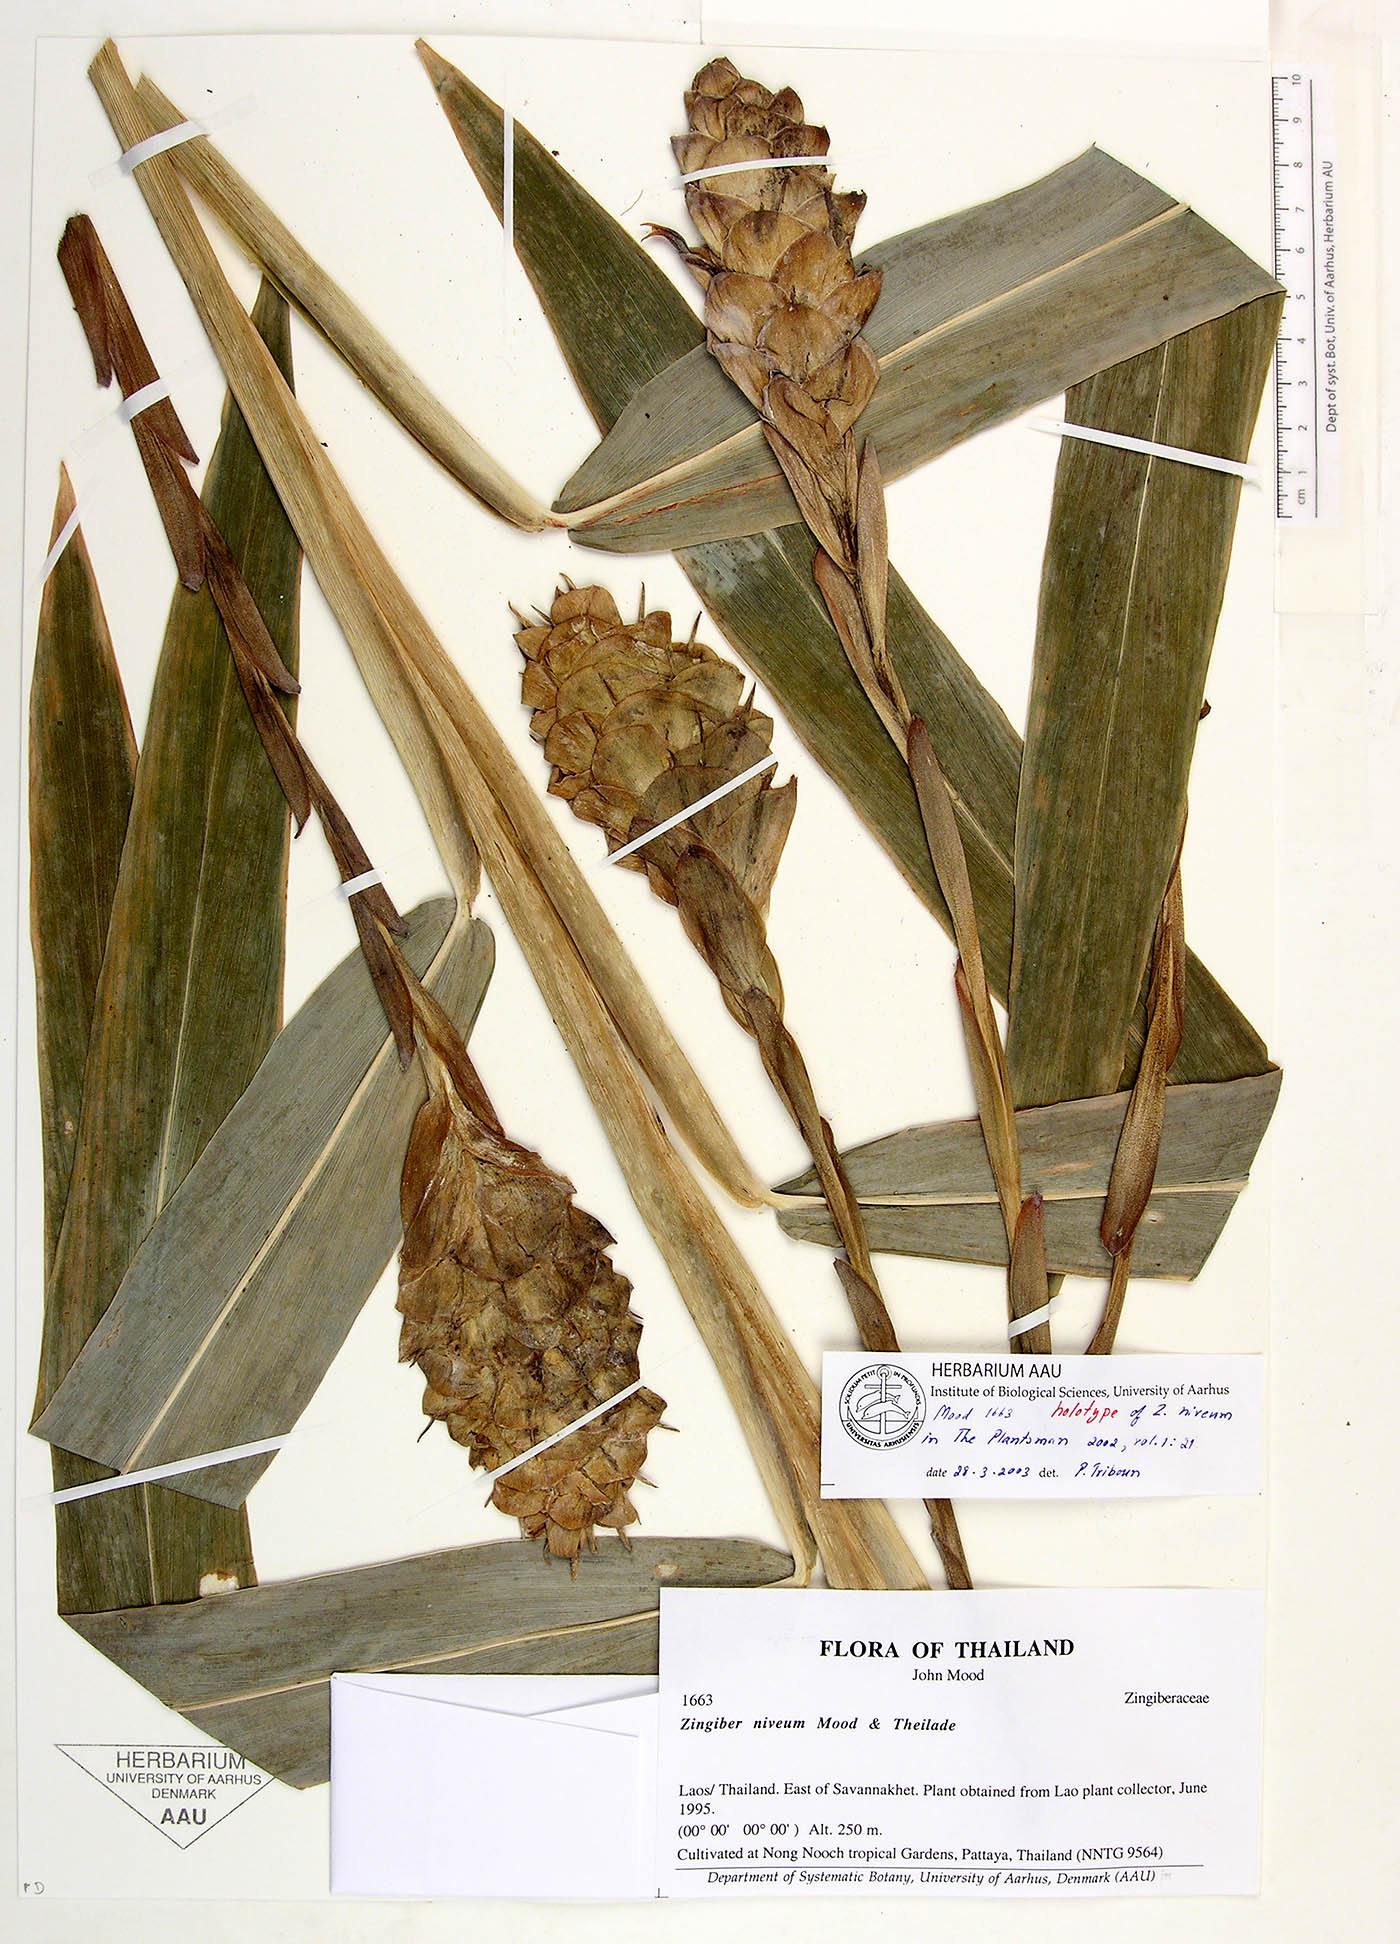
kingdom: Plantae
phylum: Tracheophyta
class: Liliopsida
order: Zingiberales
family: Zingiberaceae
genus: Zingiber
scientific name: Zingiber niveum
